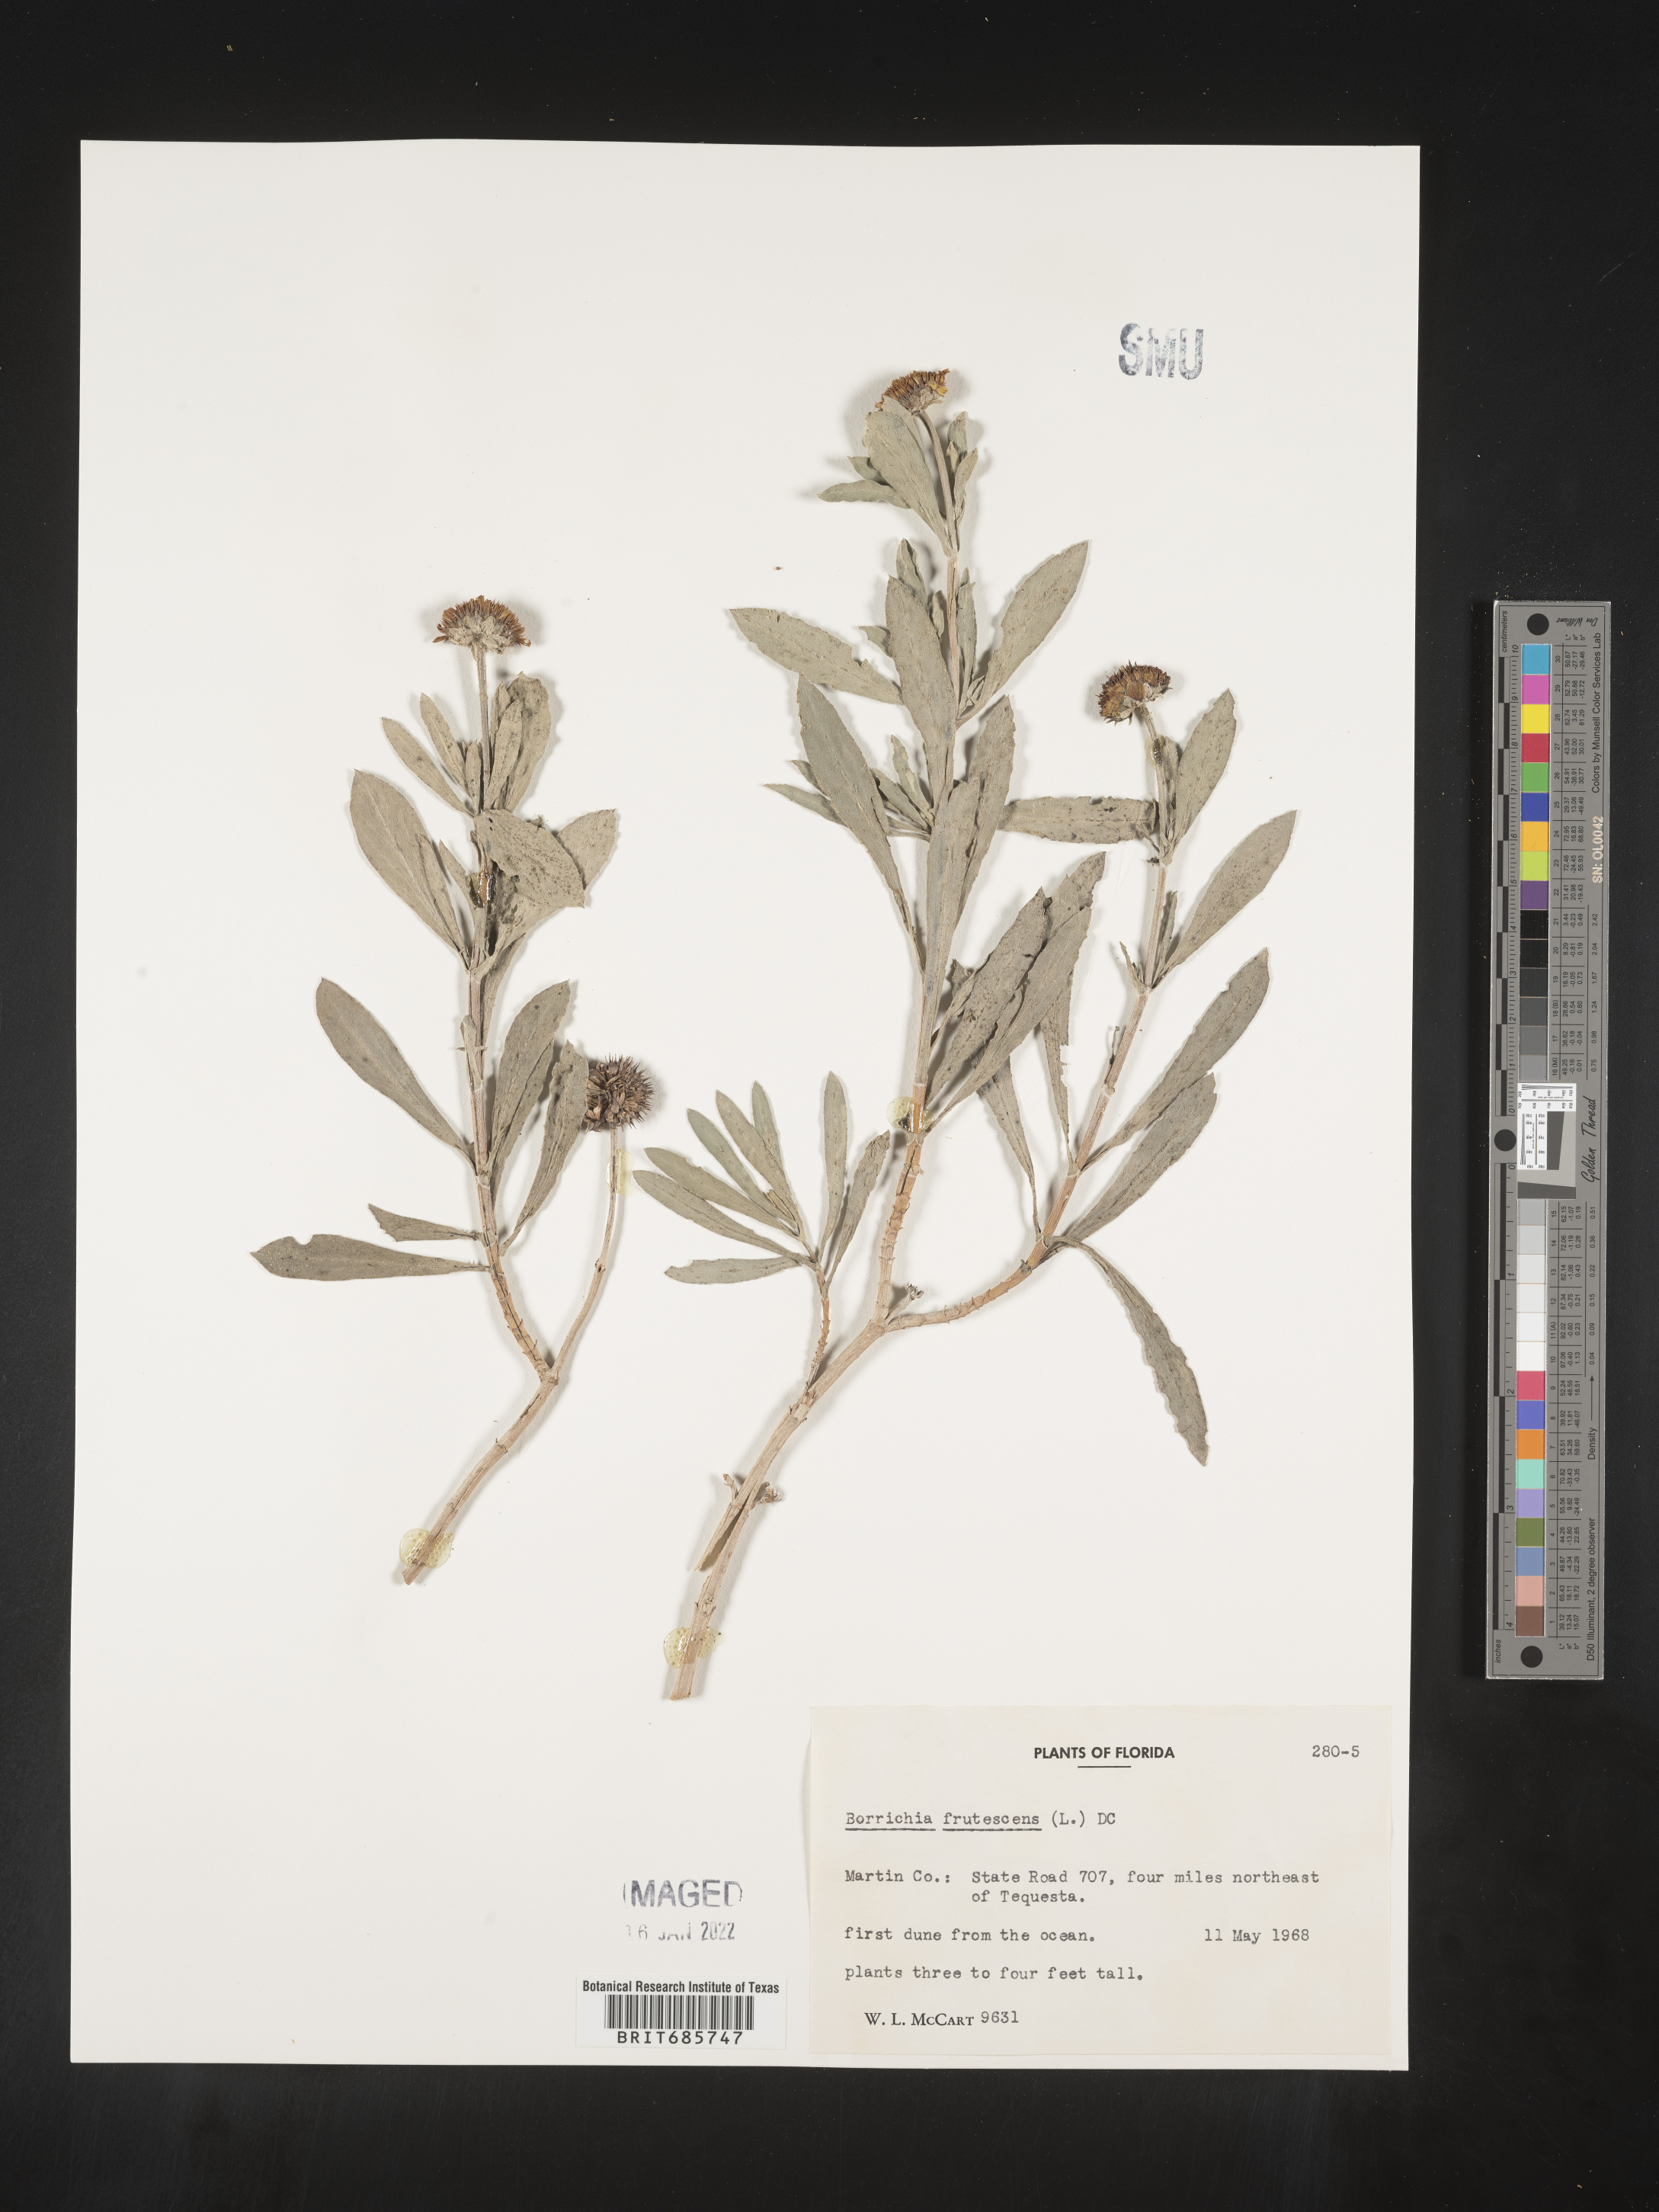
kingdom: Plantae
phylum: Tracheophyta
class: Magnoliopsida
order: Asterales
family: Asteraceae
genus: Borrichia
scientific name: Borrichia frutescens
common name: Sea oxeye
